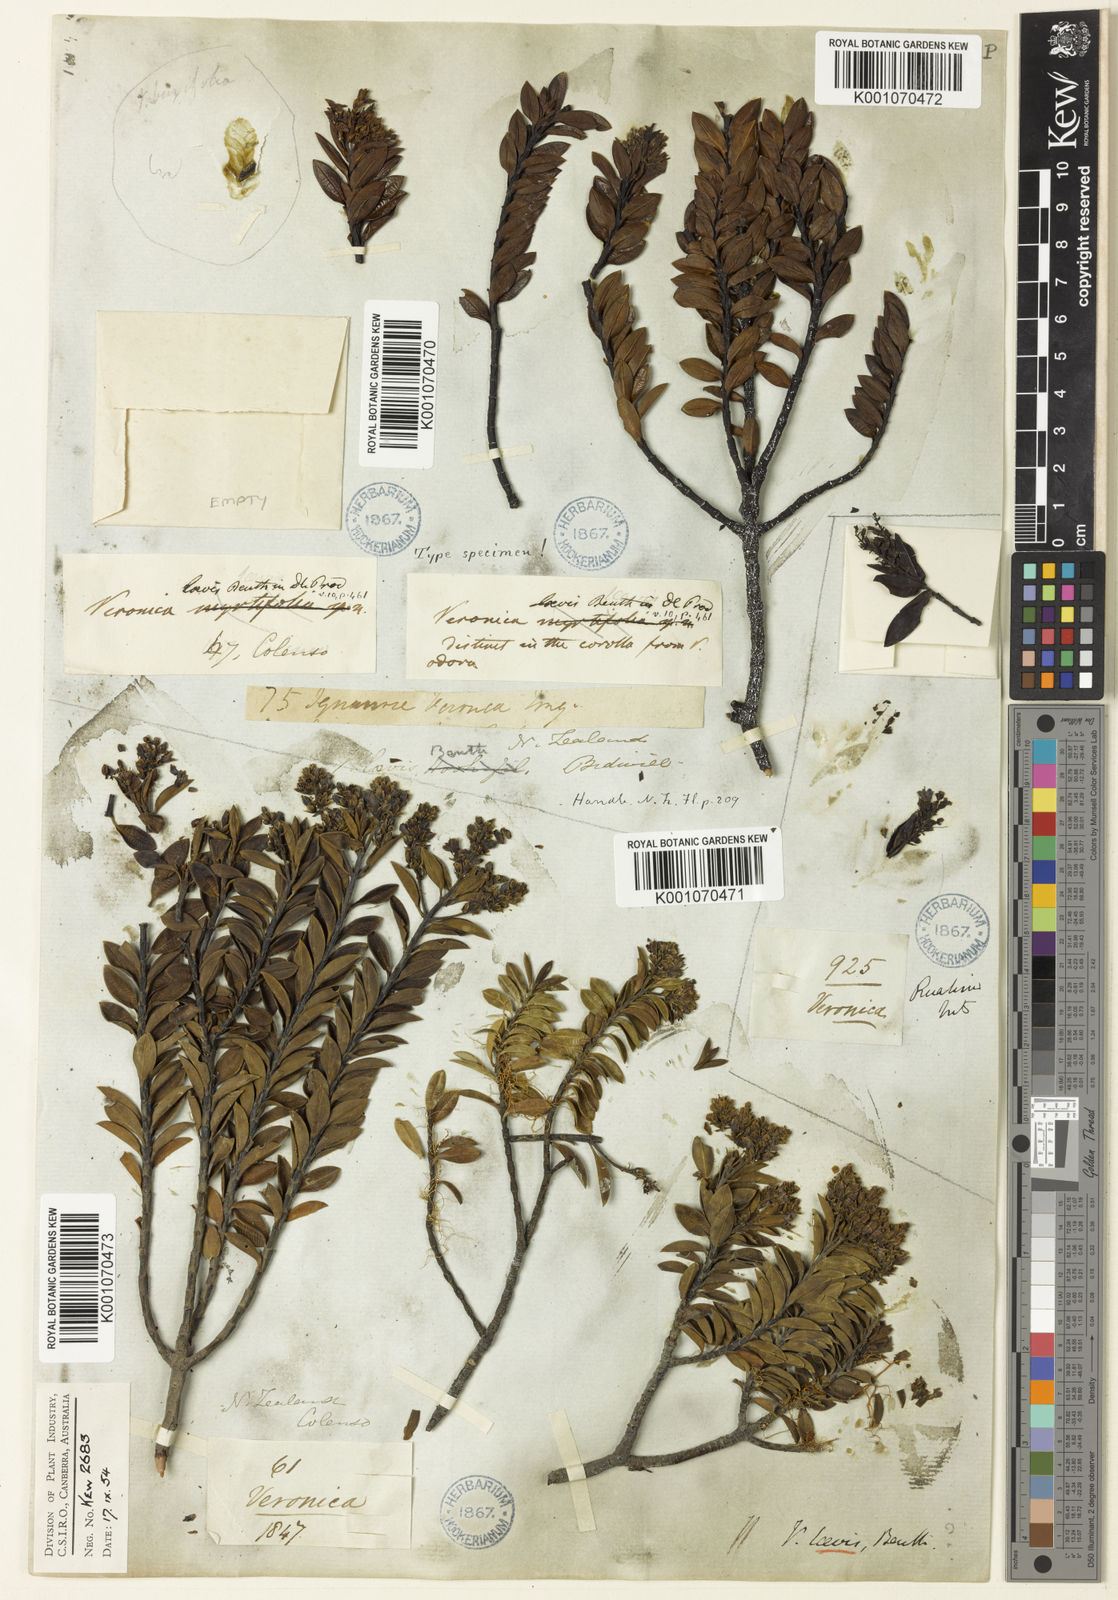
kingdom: Plantae
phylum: Tracheophyta
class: Magnoliopsida
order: Lamiales
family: Plantaginaceae
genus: Veronica
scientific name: Veronica venustula
